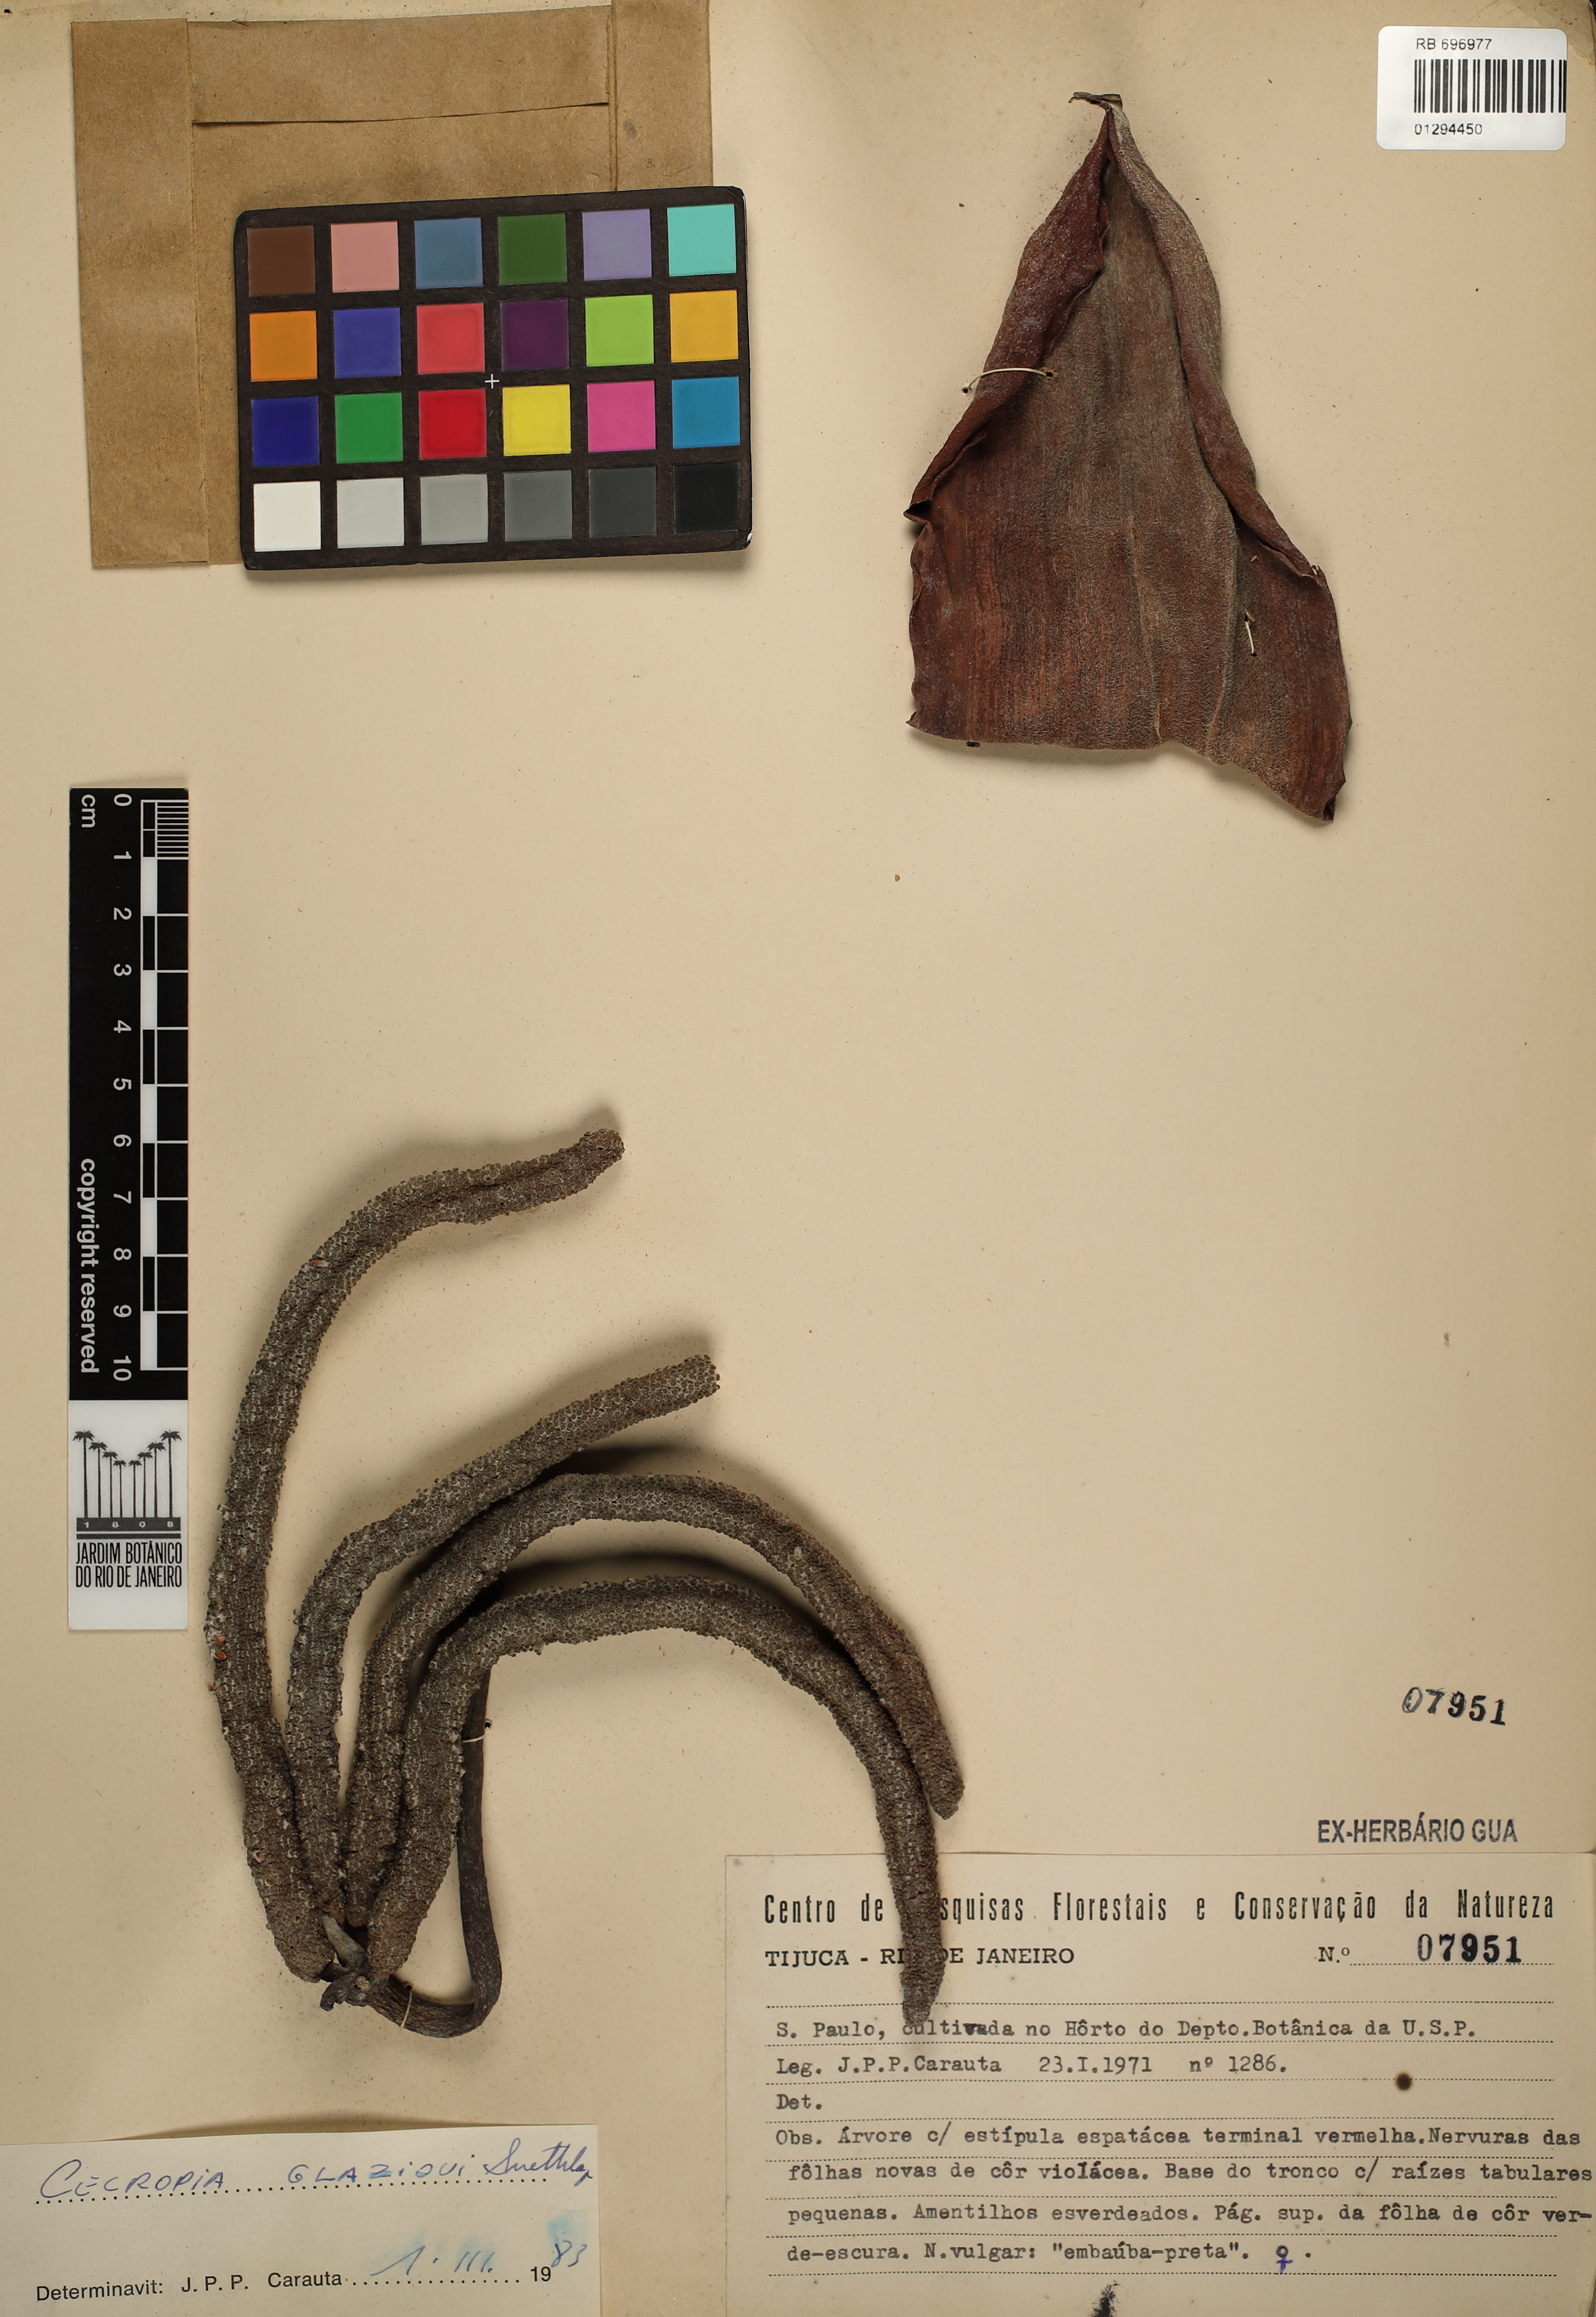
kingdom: Plantae
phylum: Tracheophyta
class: Magnoliopsida
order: Rosales
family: Urticaceae
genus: Cecropia
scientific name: Cecropia glaziovii
